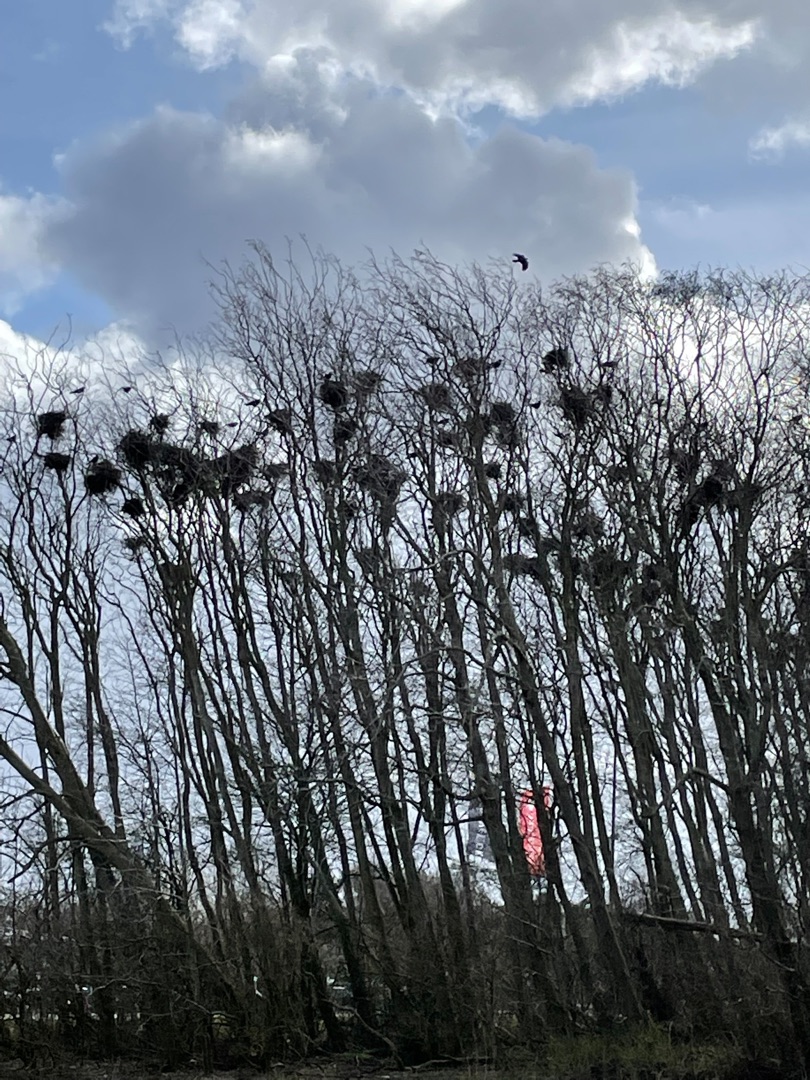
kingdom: Animalia
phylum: Chordata
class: Aves
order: Passeriformes
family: Corvidae
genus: Corvus
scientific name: Corvus frugilegus
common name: Råge
